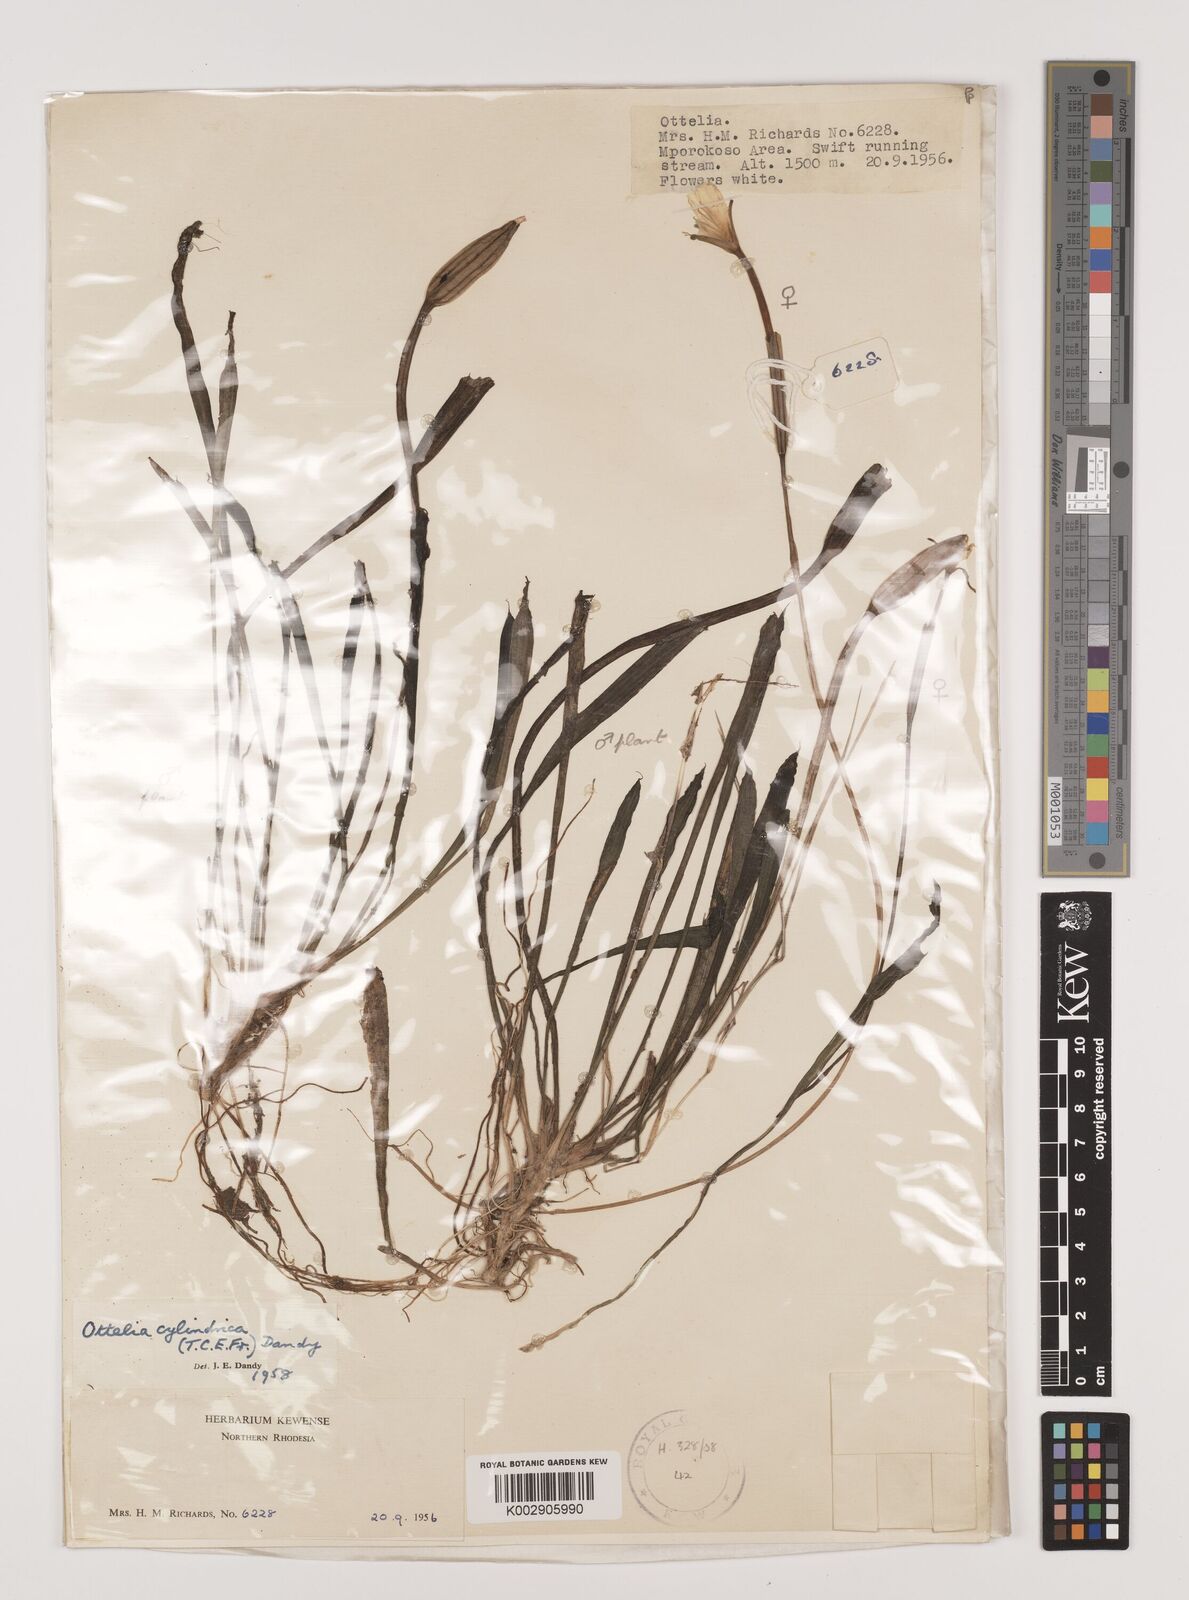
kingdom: Plantae
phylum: Tracheophyta
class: Liliopsida
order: Alismatales
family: Hydrocharitaceae
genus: Ottelia
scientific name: Ottelia cylindrica
